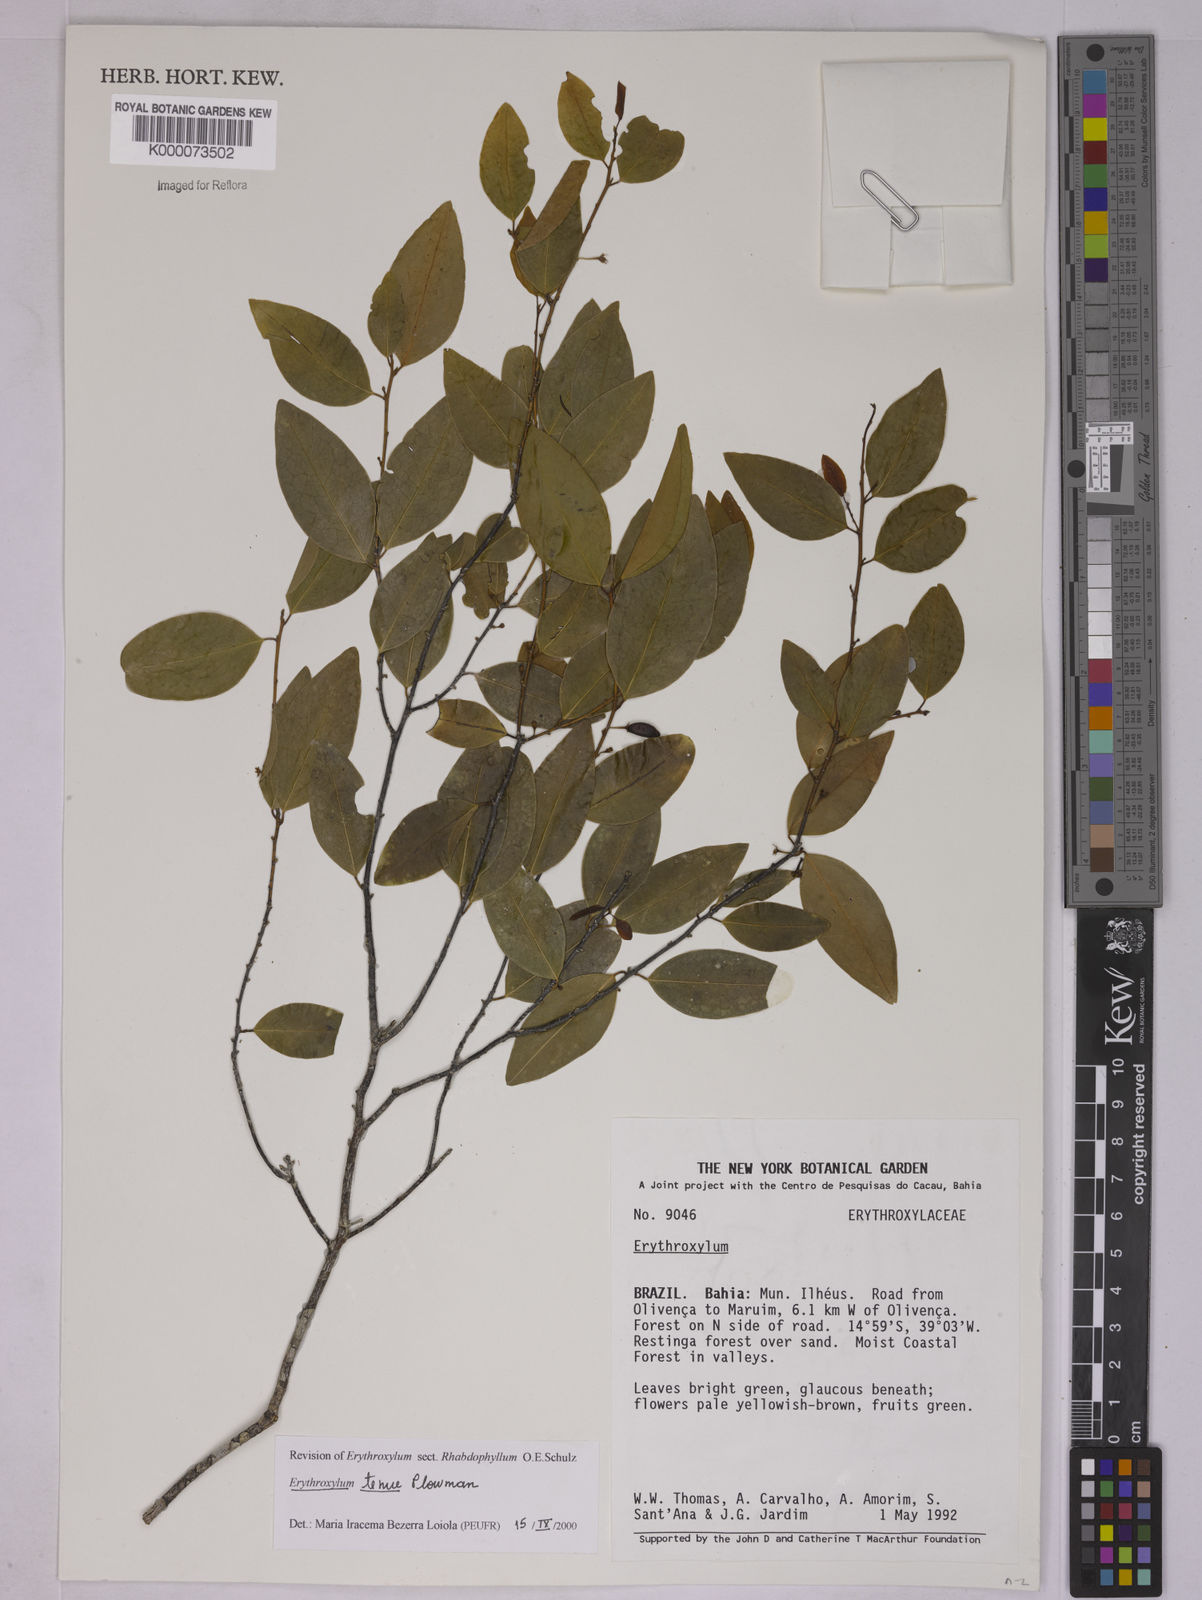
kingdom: Plantae
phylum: Tracheophyta
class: Magnoliopsida
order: Malpighiales
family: Erythroxylaceae
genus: Erythroxylum
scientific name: Erythroxylum tenue
